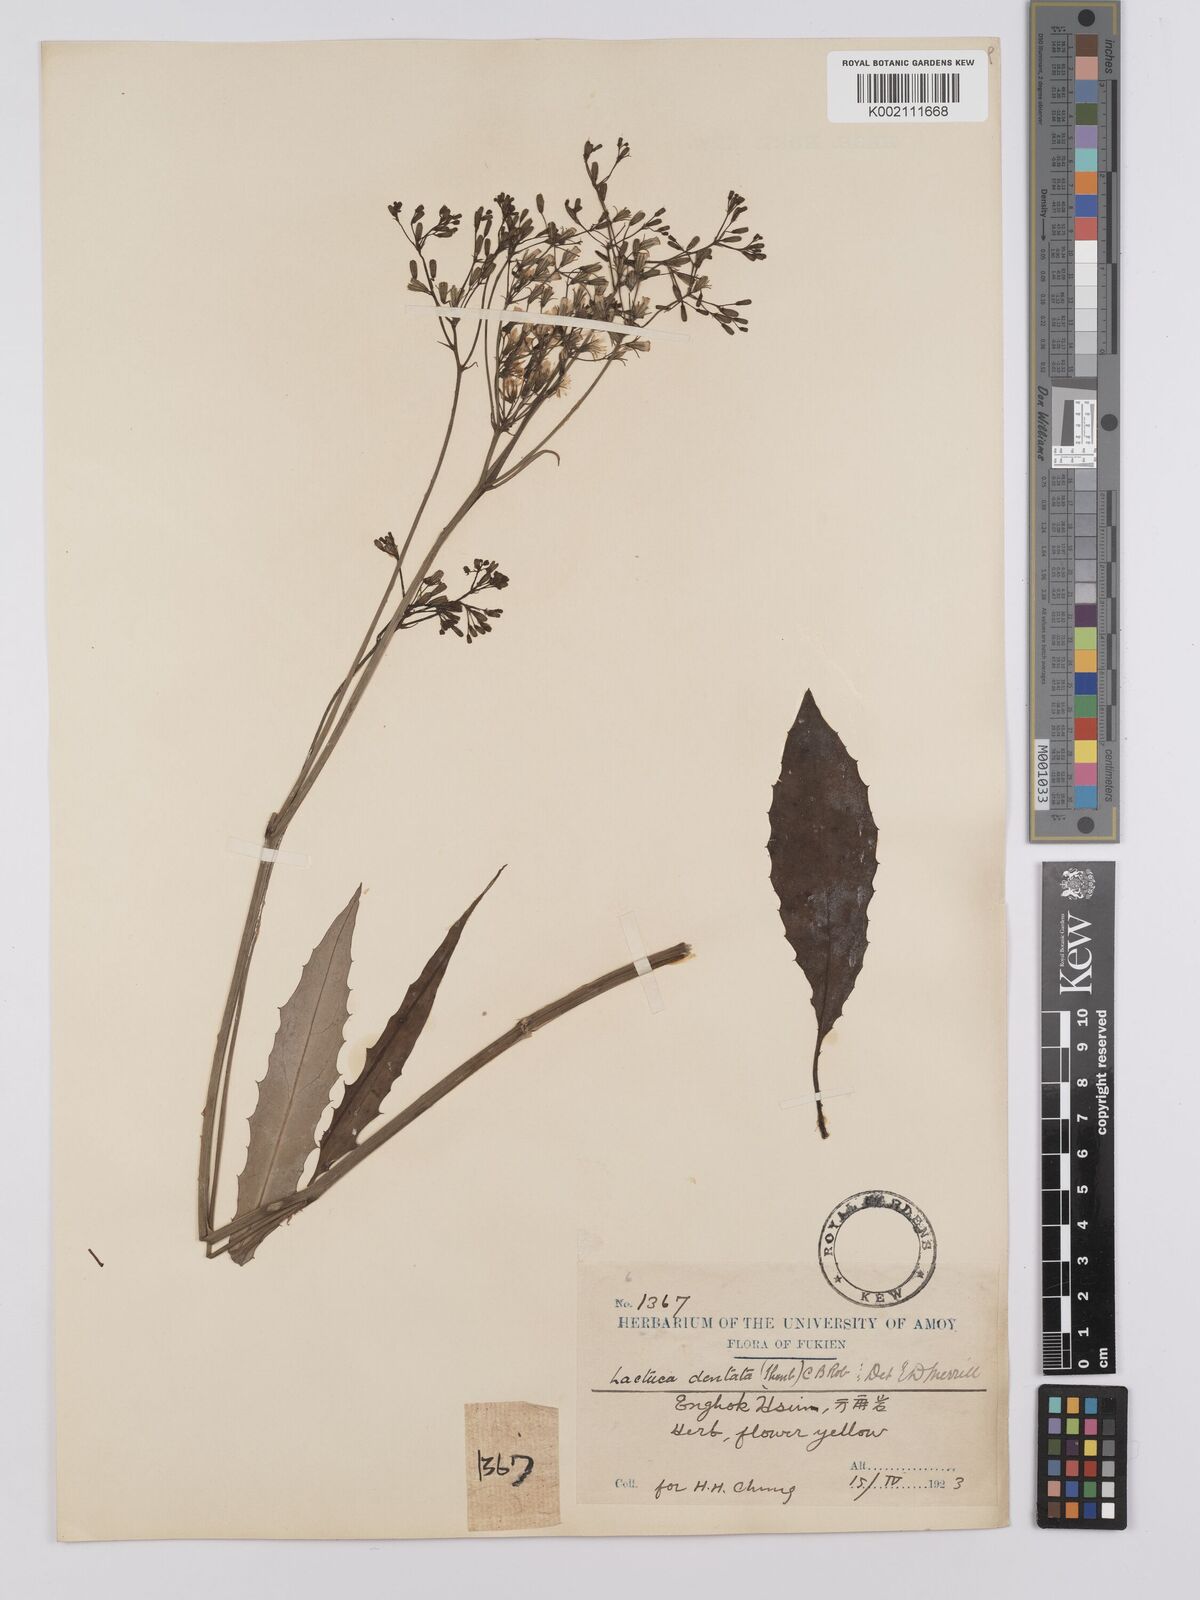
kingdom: Plantae
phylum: Tracheophyta
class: Magnoliopsida
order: Asterales
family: Asteraceae
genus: Ixeridium
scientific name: Ixeridium dentatum
